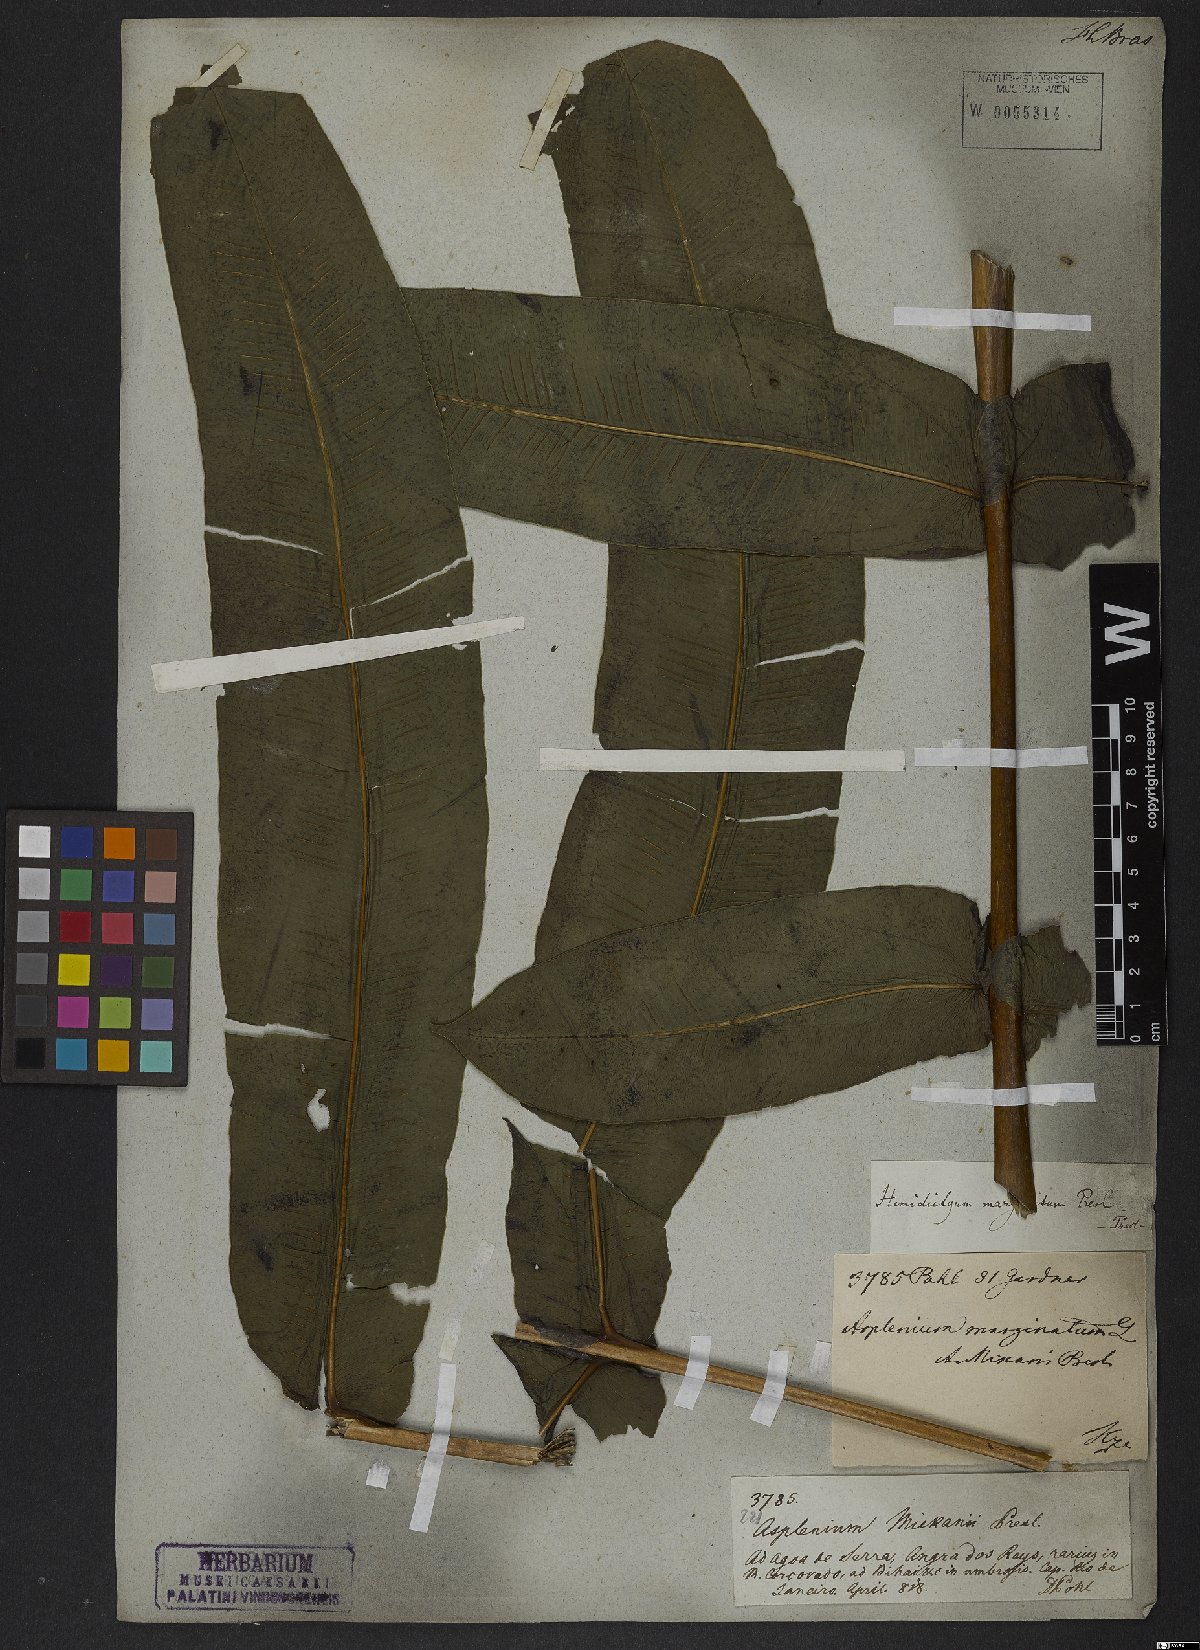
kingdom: Plantae
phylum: Tracheophyta
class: Polypodiopsida
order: Polypodiales
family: Hemidictyaceae
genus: Hemidictyum
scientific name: Hemidictyum marginatum
